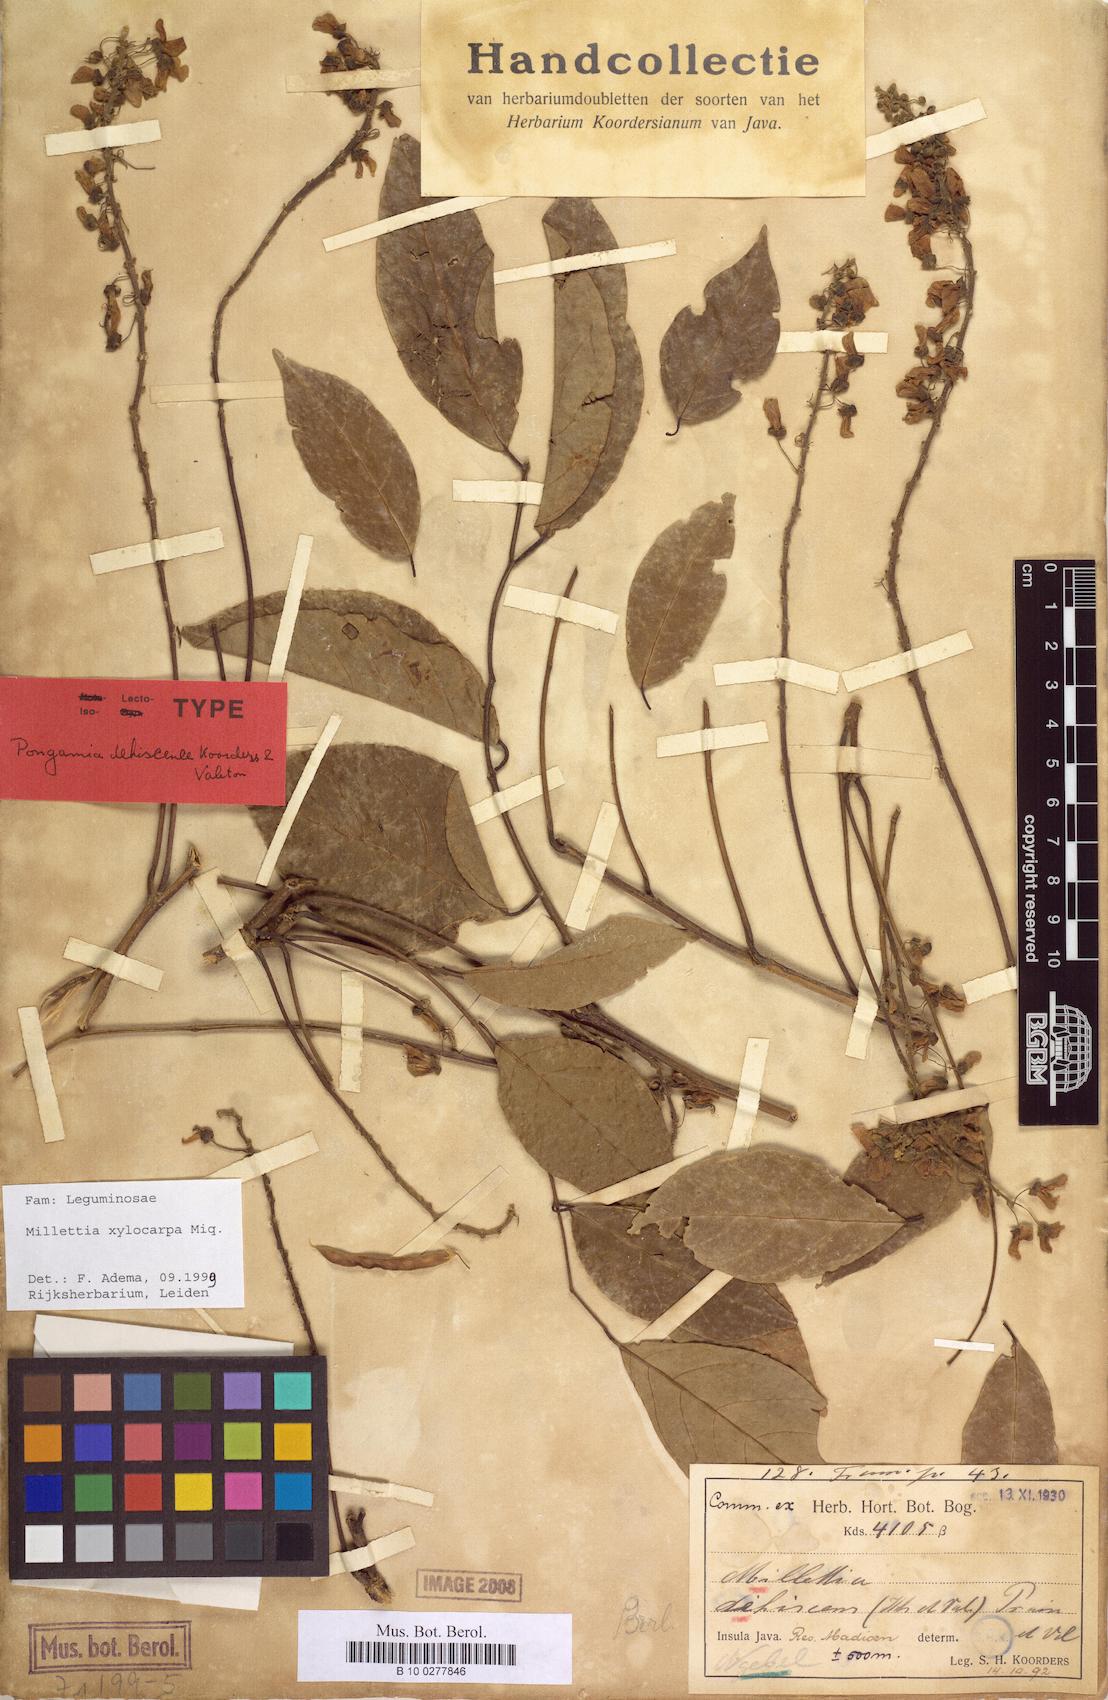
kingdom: Plantae
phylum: Tracheophyta
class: Magnoliopsida
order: Fabales
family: Fabaceae
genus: Millettia
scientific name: Millettia xylocarpa
